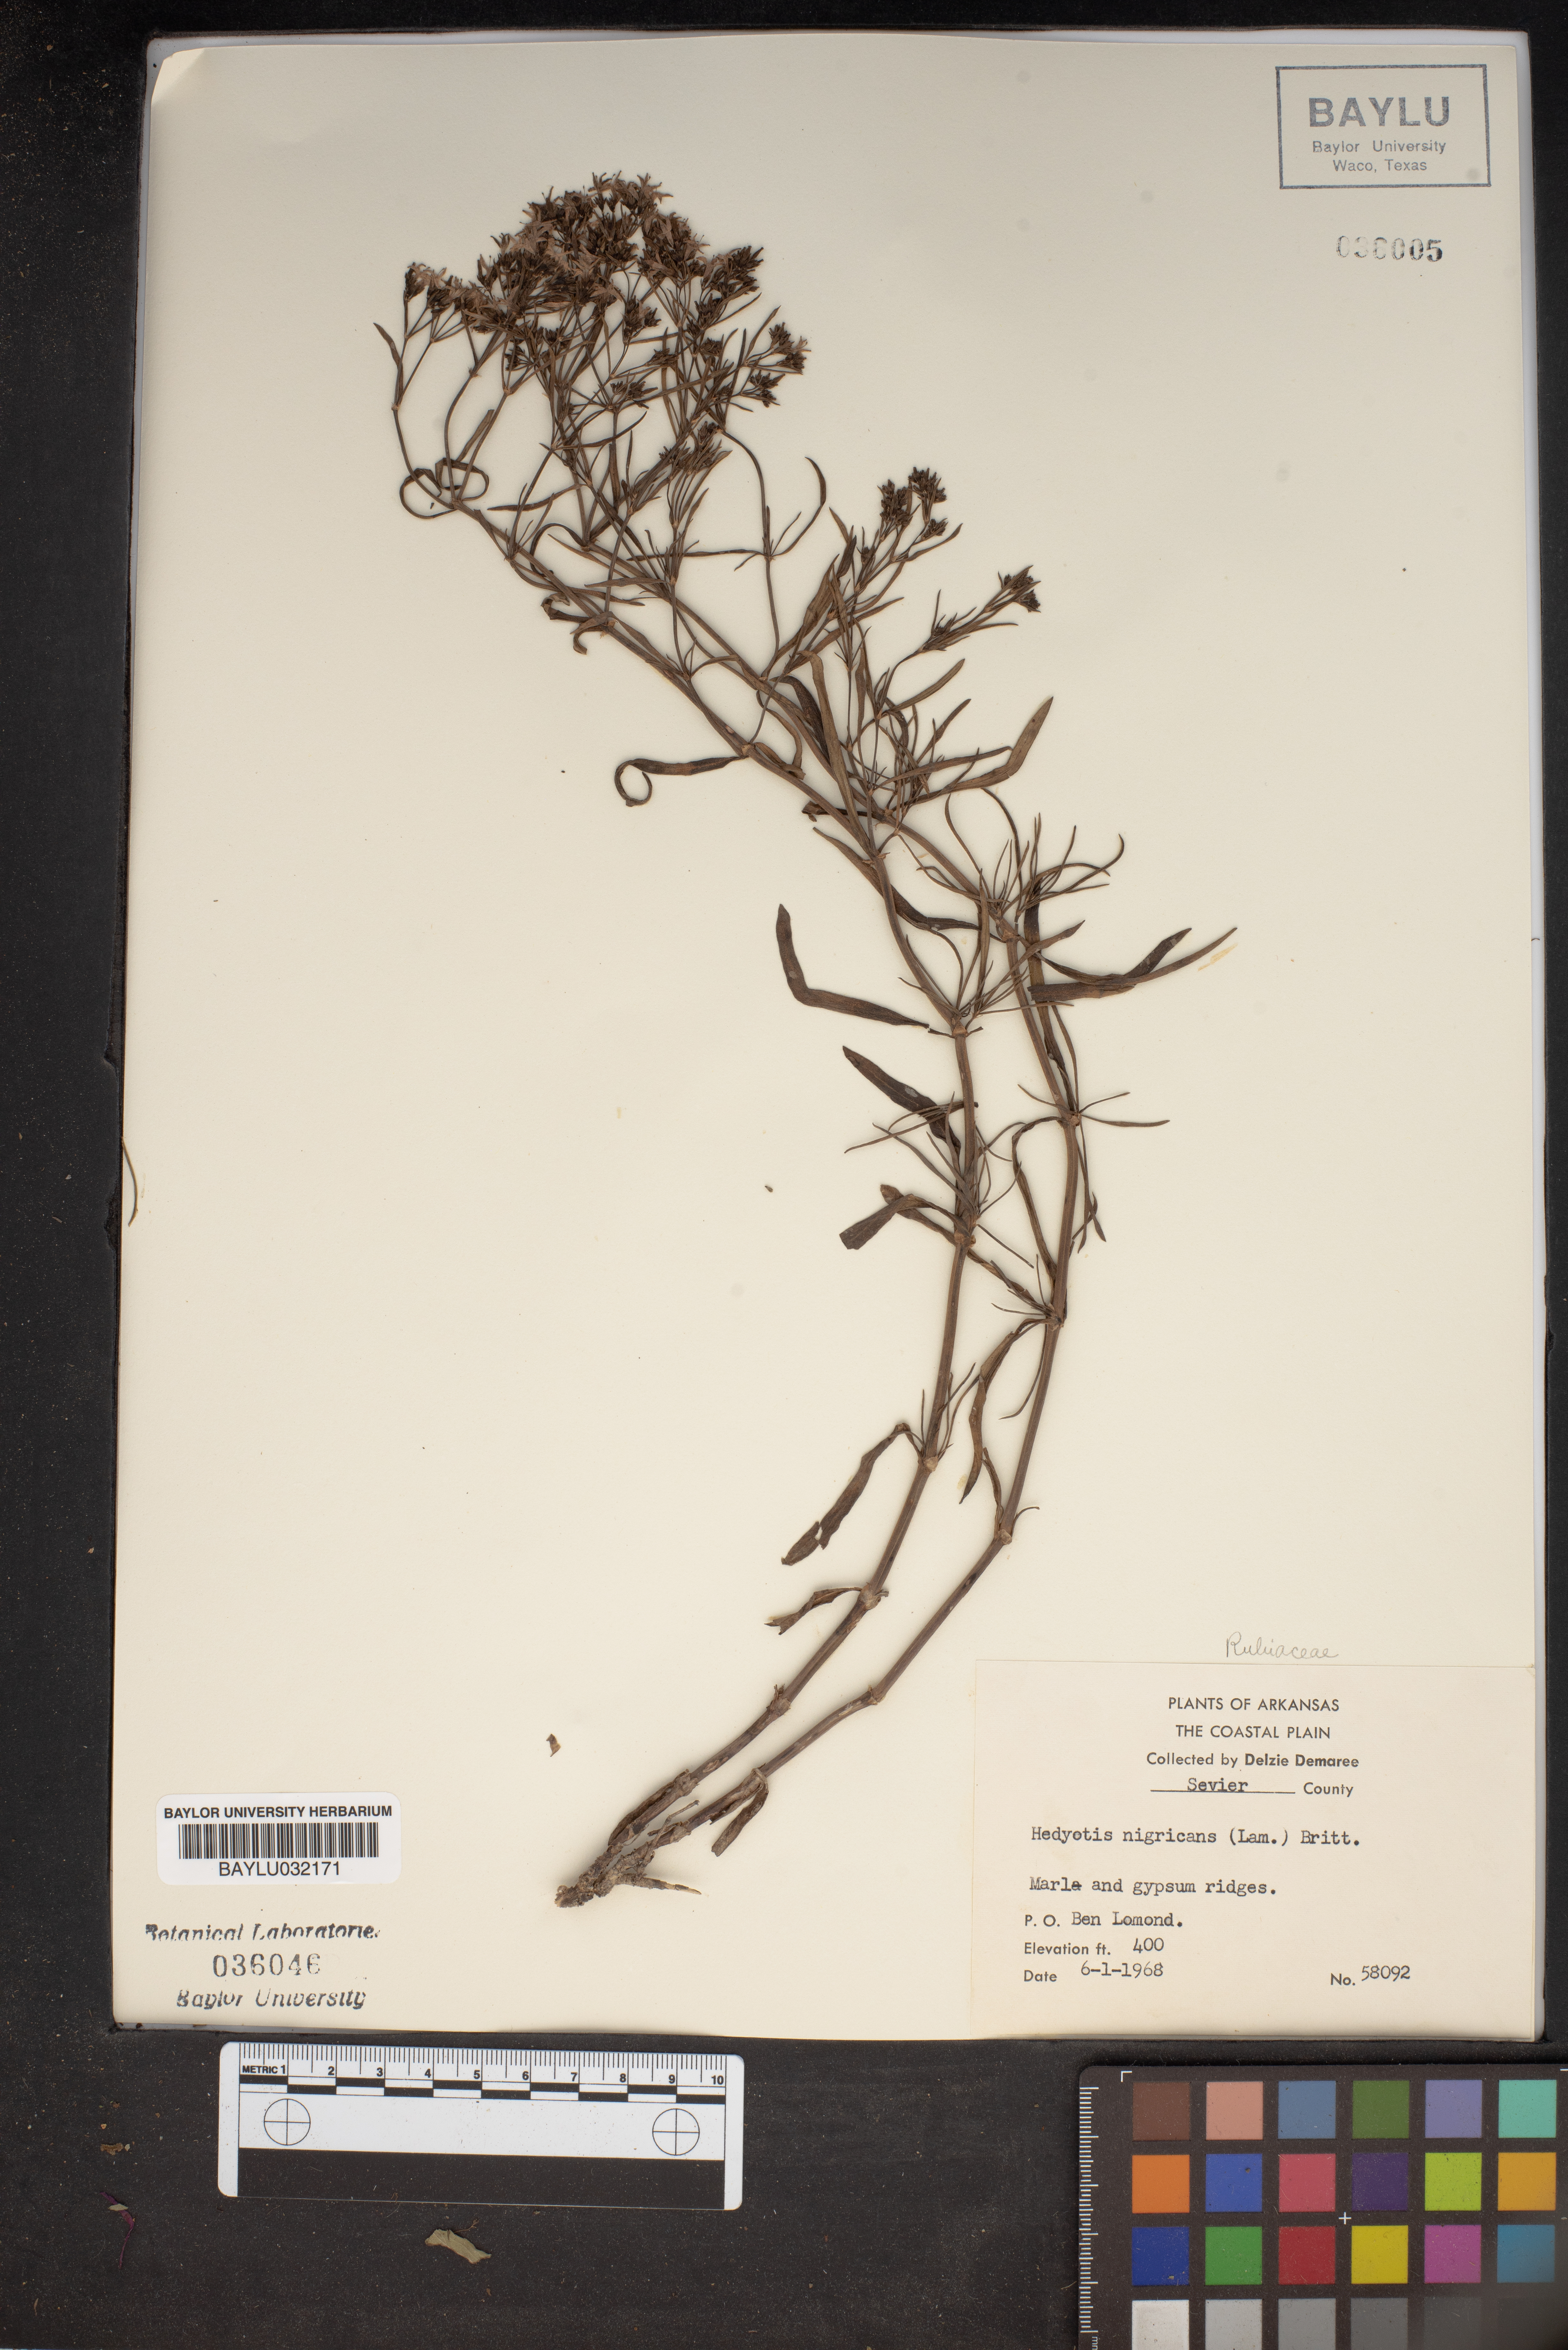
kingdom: Plantae
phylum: Tracheophyta
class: Magnoliopsida
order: Gentianales
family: Rubiaceae
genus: Stenaria
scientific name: Stenaria nigricans
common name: Diamondflowers
